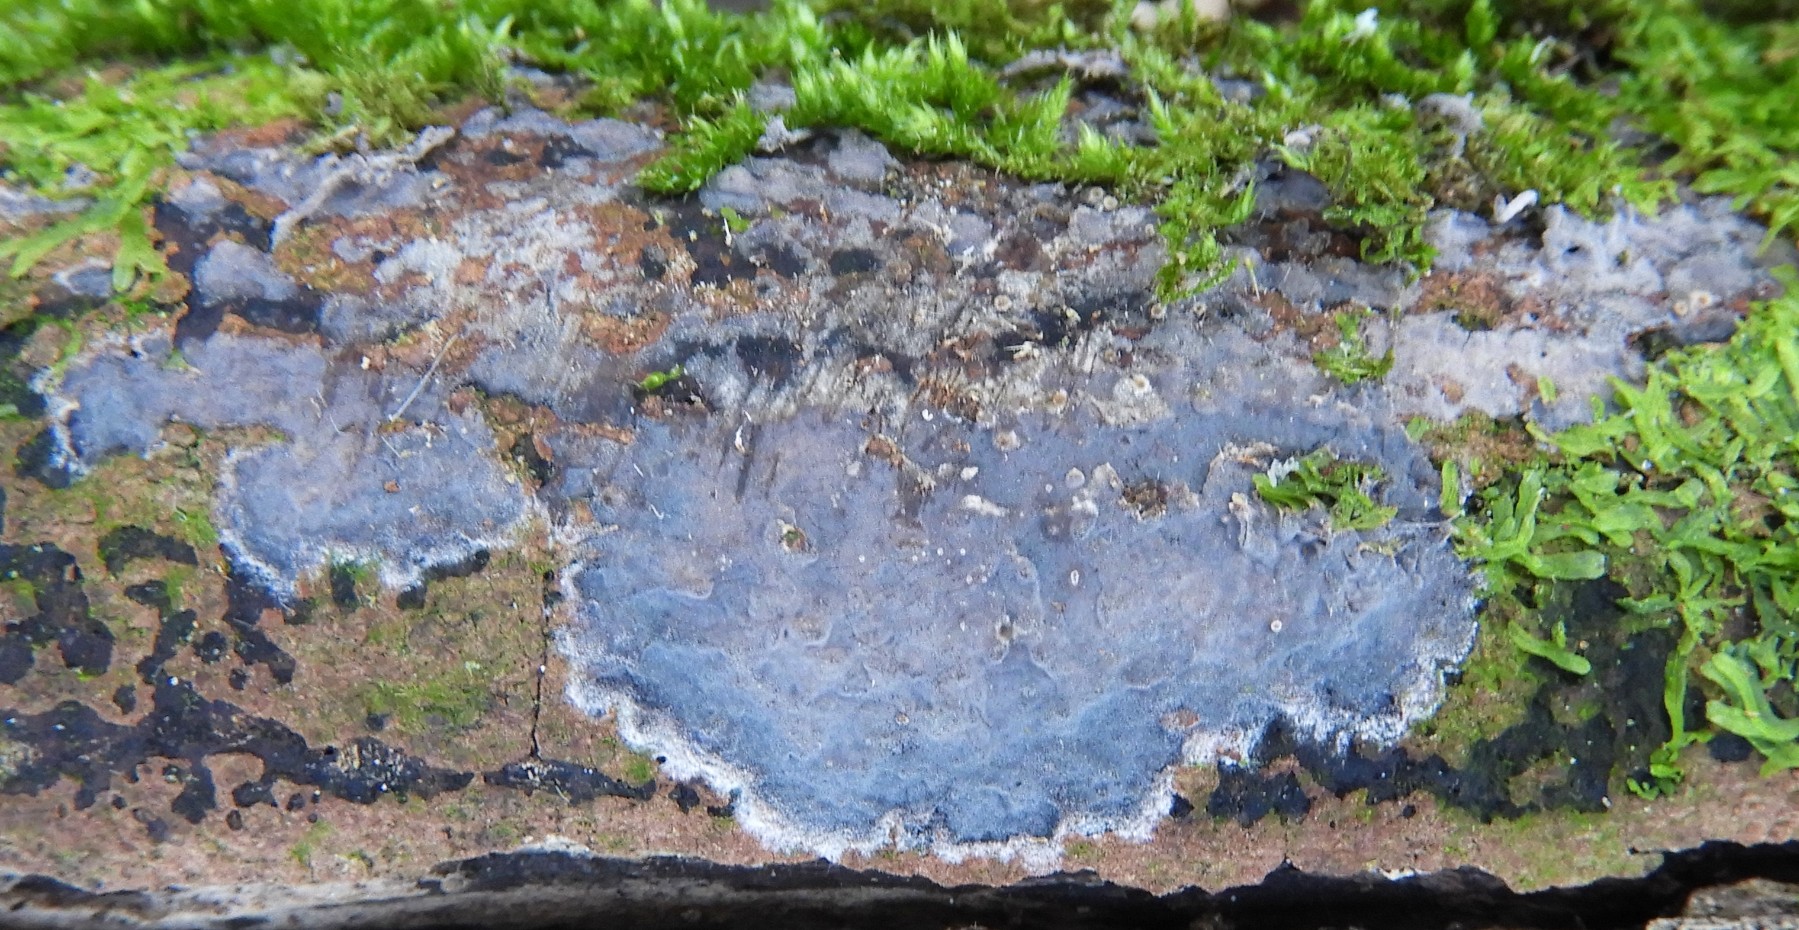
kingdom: Fungi
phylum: Basidiomycota
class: Agaricomycetes
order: Russulales
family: Peniophoraceae
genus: Peniophora
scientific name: Peniophora
